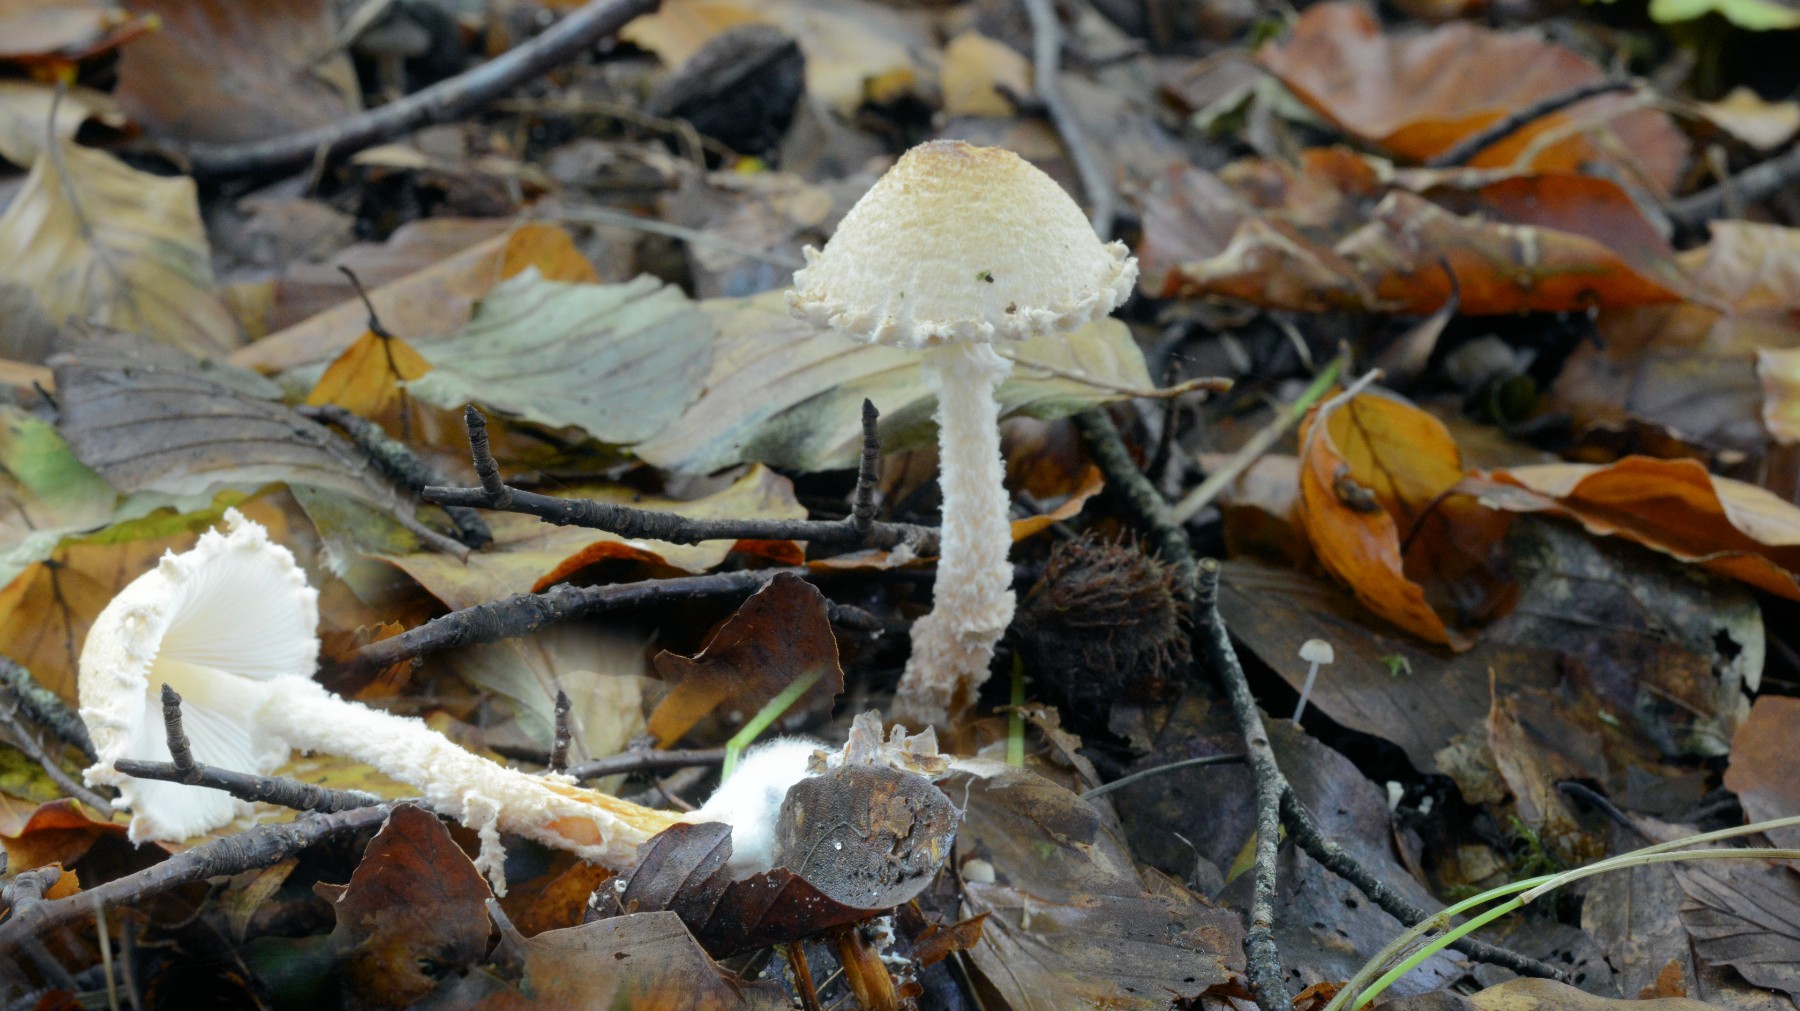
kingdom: Fungi
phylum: Basidiomycota
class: Agaricomycetes
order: Agaricales
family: Agaricaceae
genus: Lepiota
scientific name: Lepiota magnispora
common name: gulfnugget parasolhat
